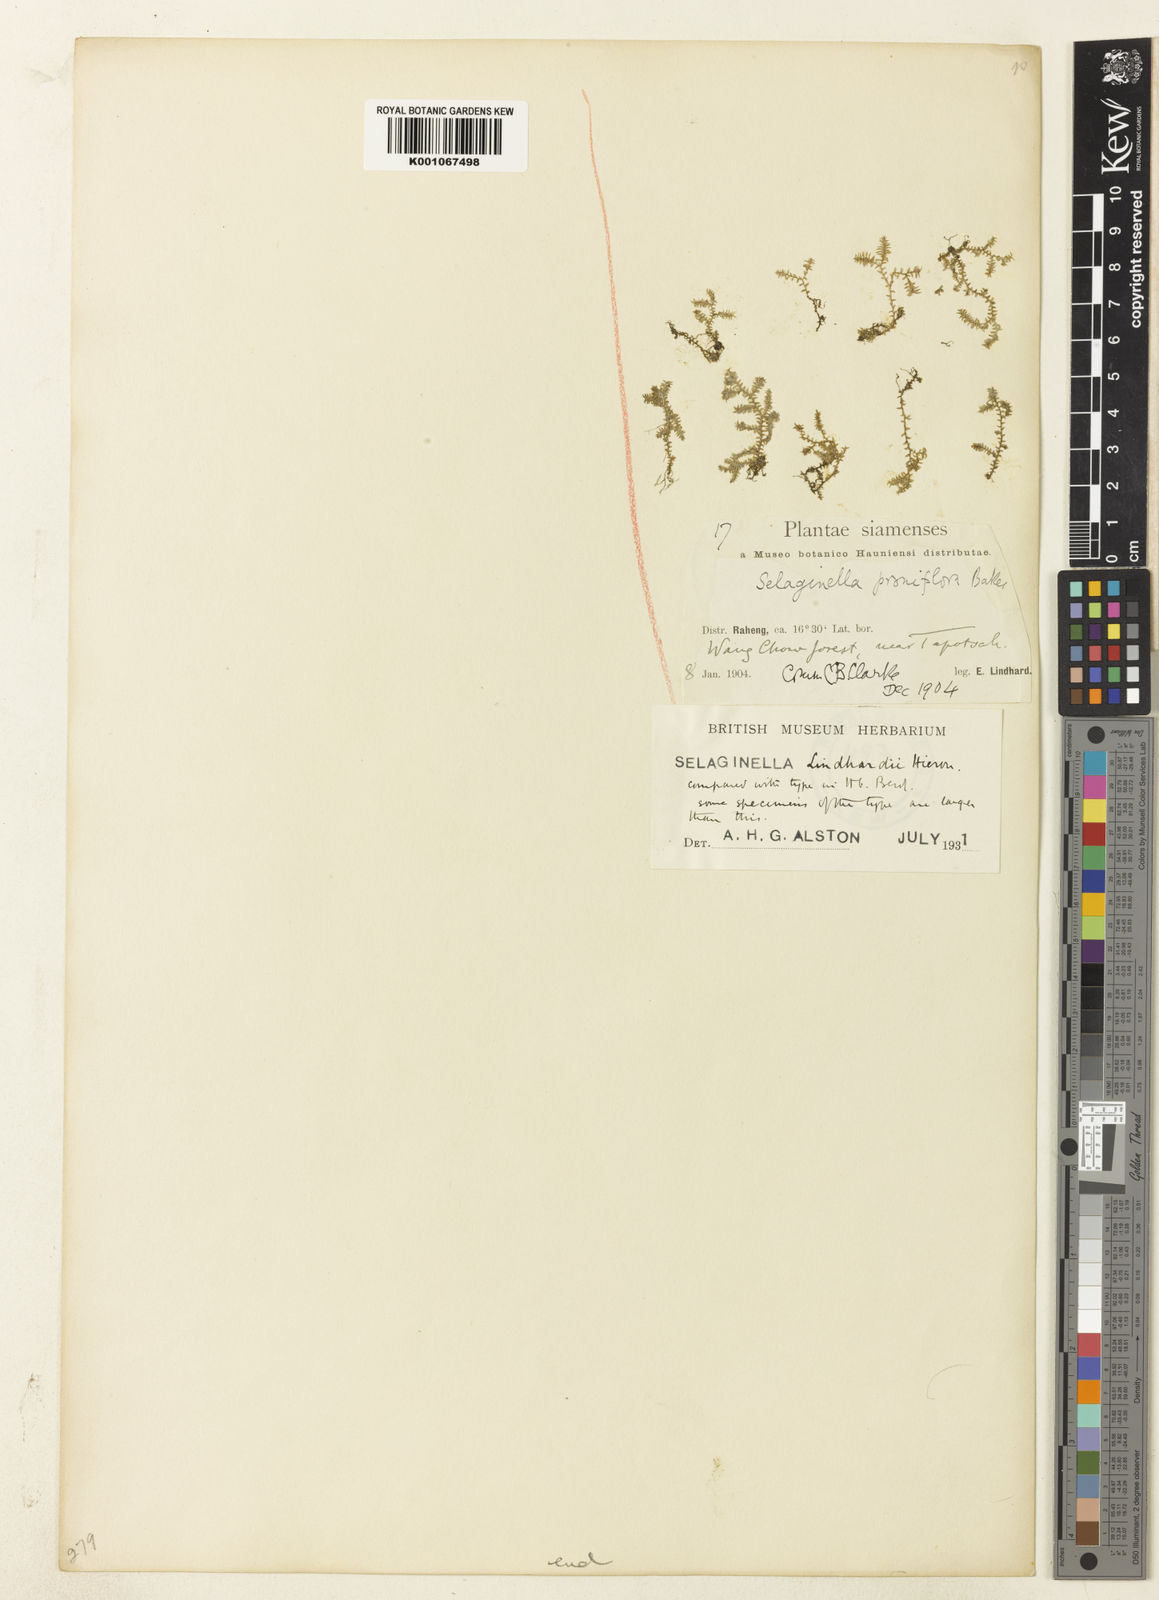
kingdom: Plantae
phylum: Tracheophyta
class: Lycopodiopsida
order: Selaginellales
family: Selaginellaceae
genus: Selaginella
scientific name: Selaginella
